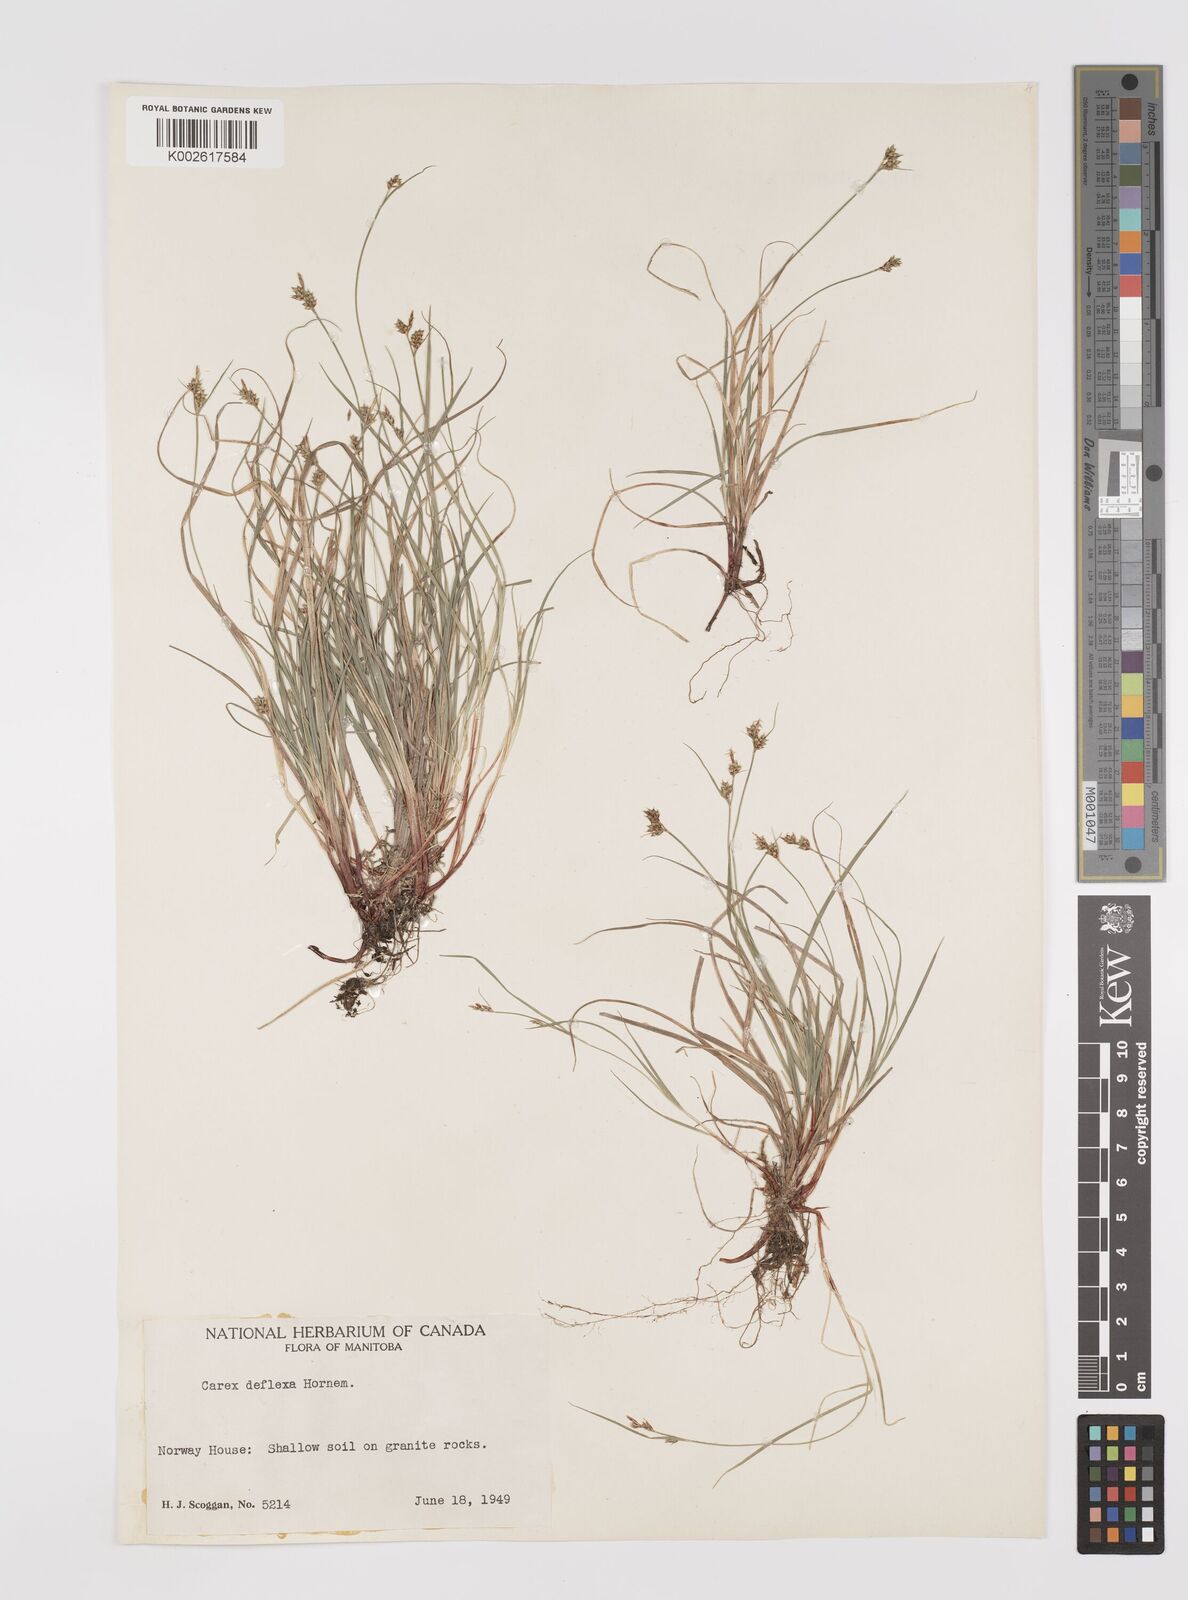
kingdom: Plantae
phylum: Tracheophyta
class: Liliopsida
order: Poales
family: Cyperaceae
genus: Carex
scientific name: Carex deflexa
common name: Bent northern sedge
